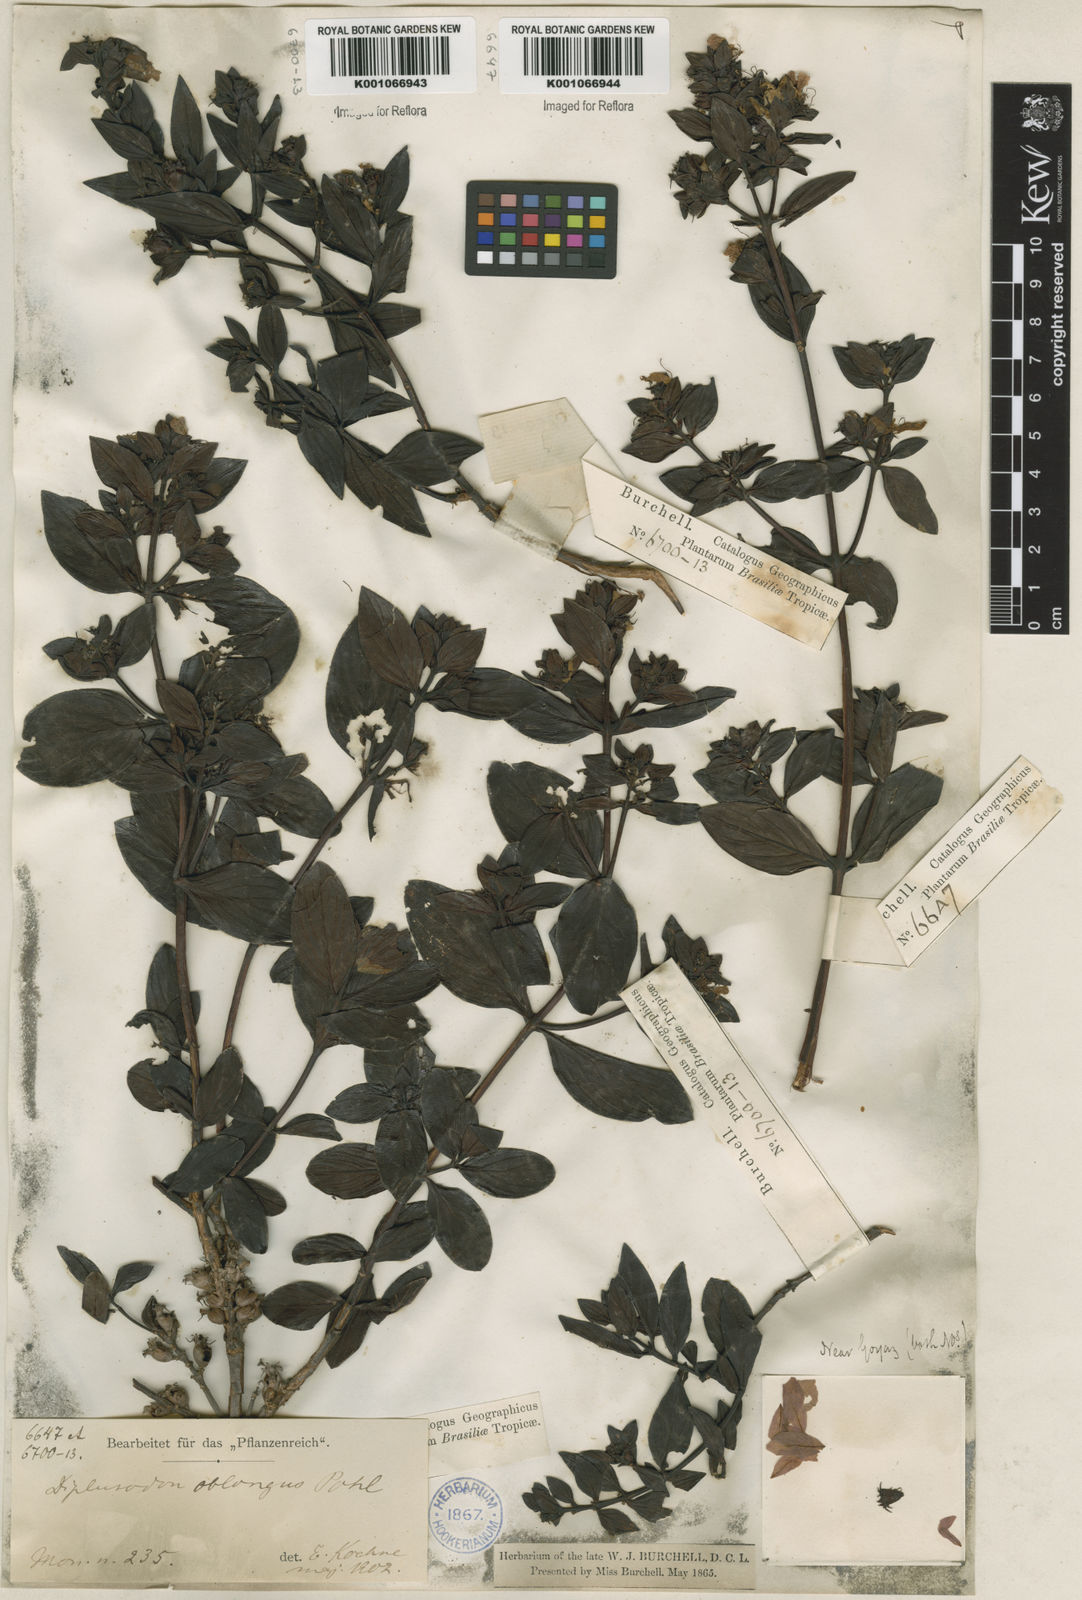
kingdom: Plantae
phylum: Tracheophyta
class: Magnoliopsida
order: Myrtales
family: Lythraceae
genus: Diplusodon
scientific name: Diplusodon oblongus
